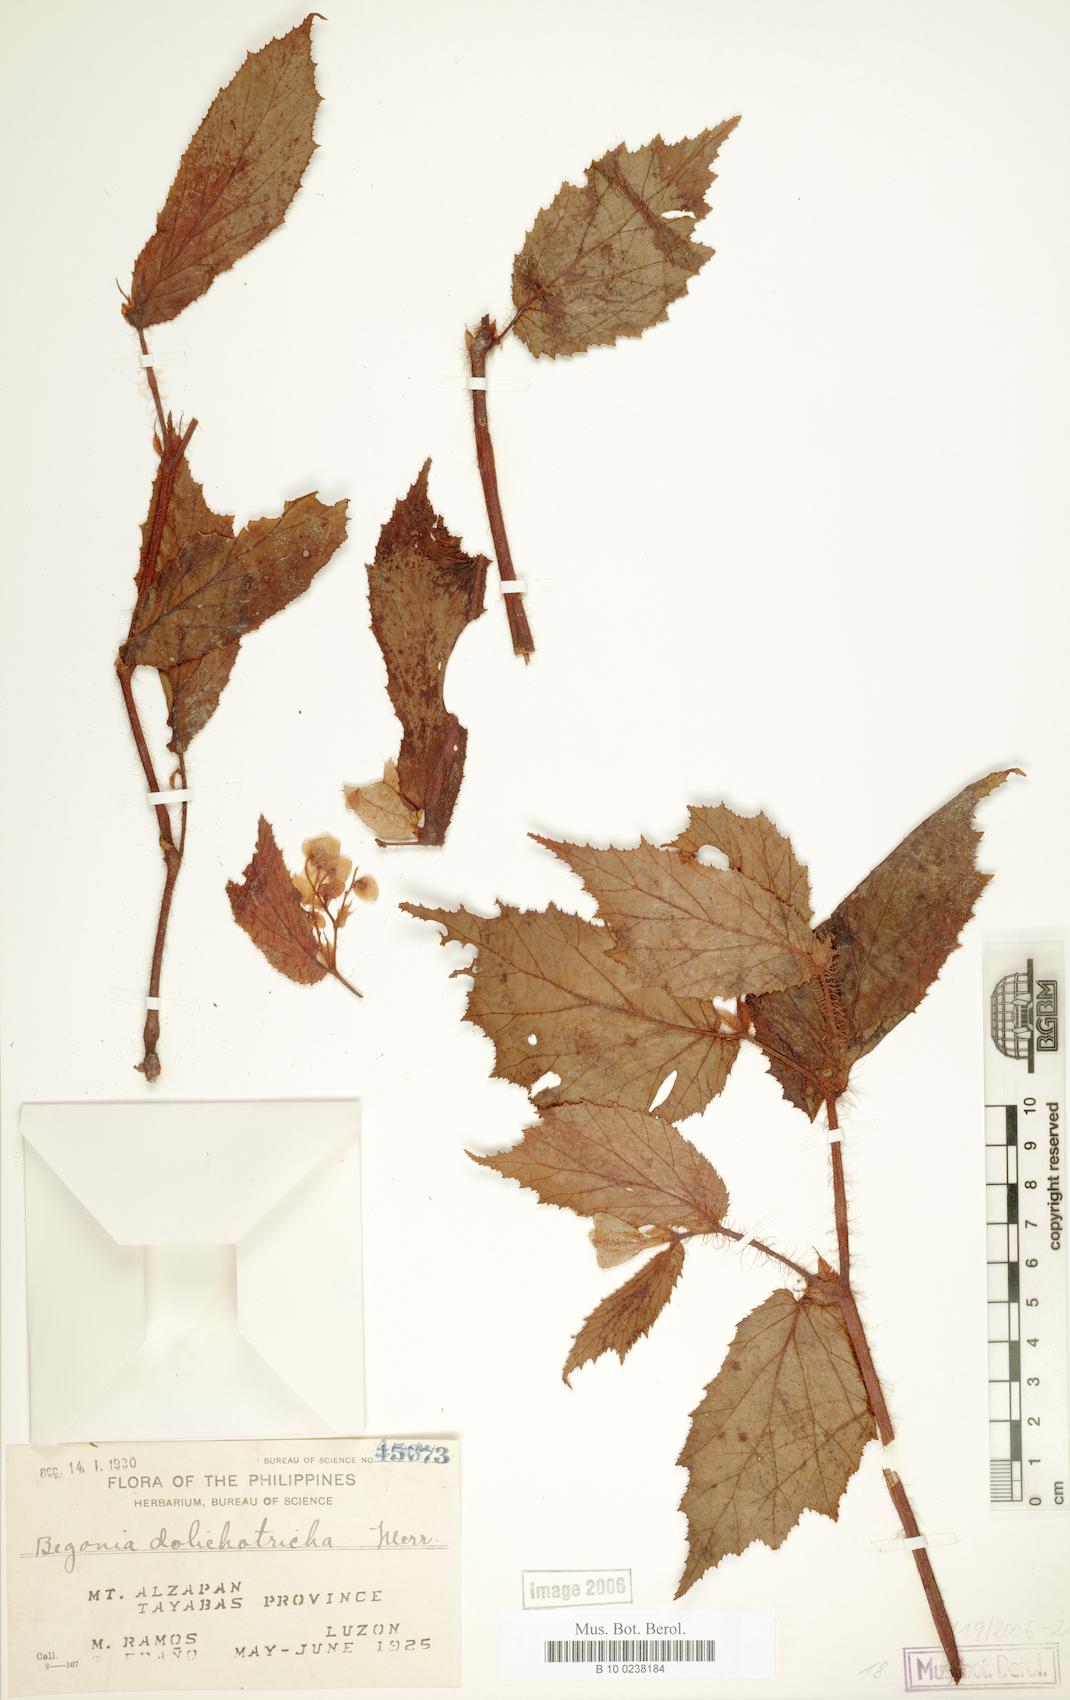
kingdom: Plantae
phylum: Tracheophyta
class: Magnoliopsida
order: Cucurbitales
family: Begoniaceae
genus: Begonia
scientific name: Begonia dolichotricha
